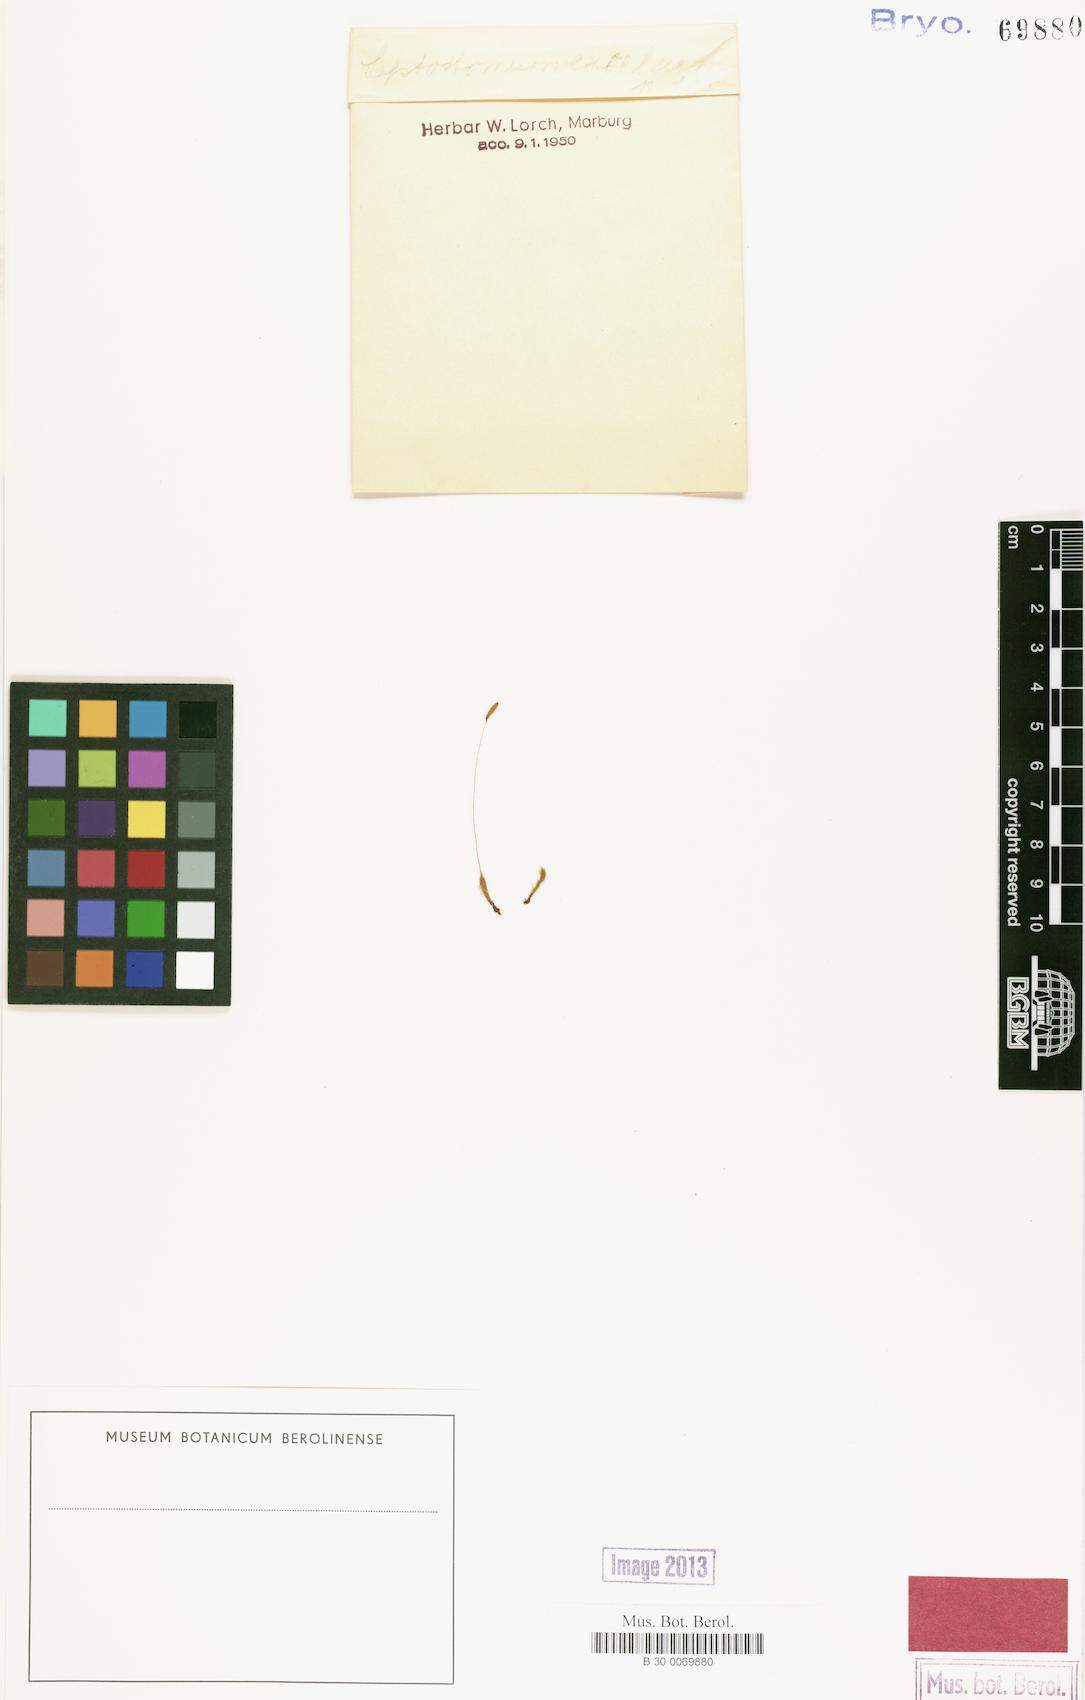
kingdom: Plantae
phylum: Bryophyta
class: Bryopsida
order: Bryales
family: Leptostomataceae
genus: Leptostomum
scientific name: Leptostomum
